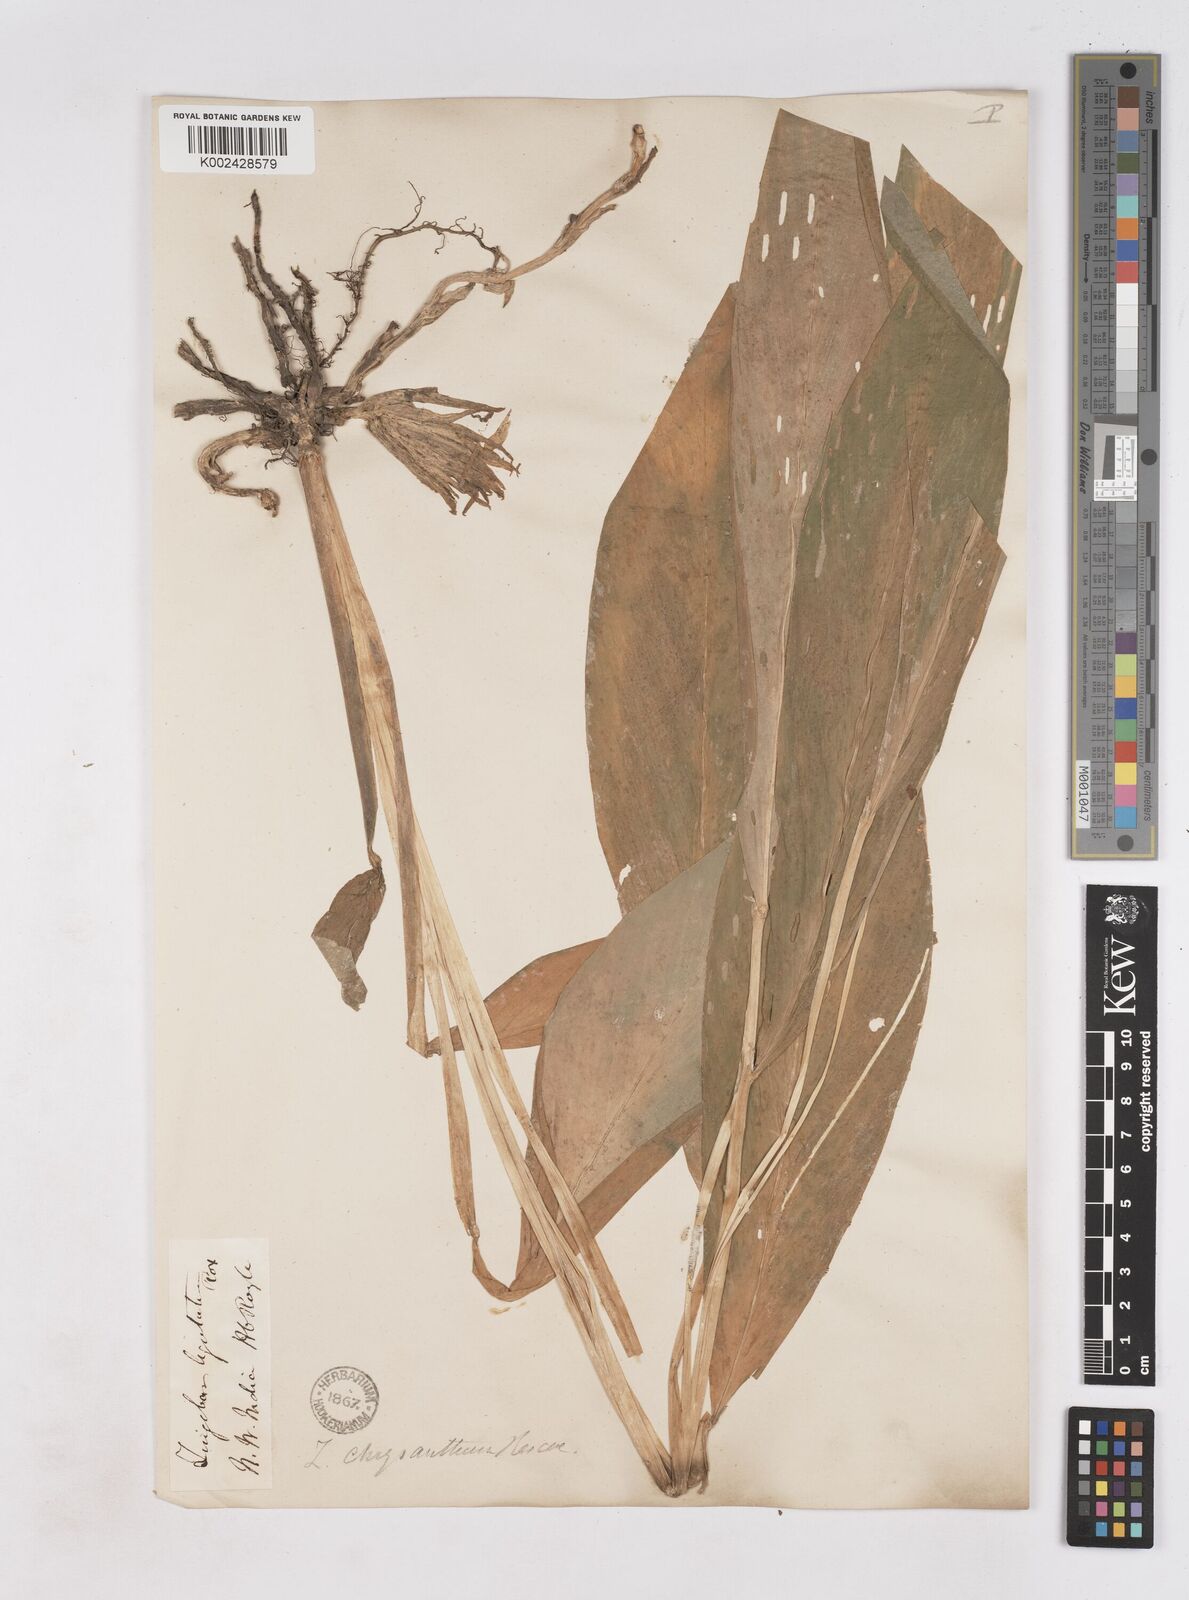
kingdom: Plantae
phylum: Tracheophyta
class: Liliopsida
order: Zingiberales
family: Zingiberaceae
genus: Zingiber
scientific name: Zingiber chrysanthum
